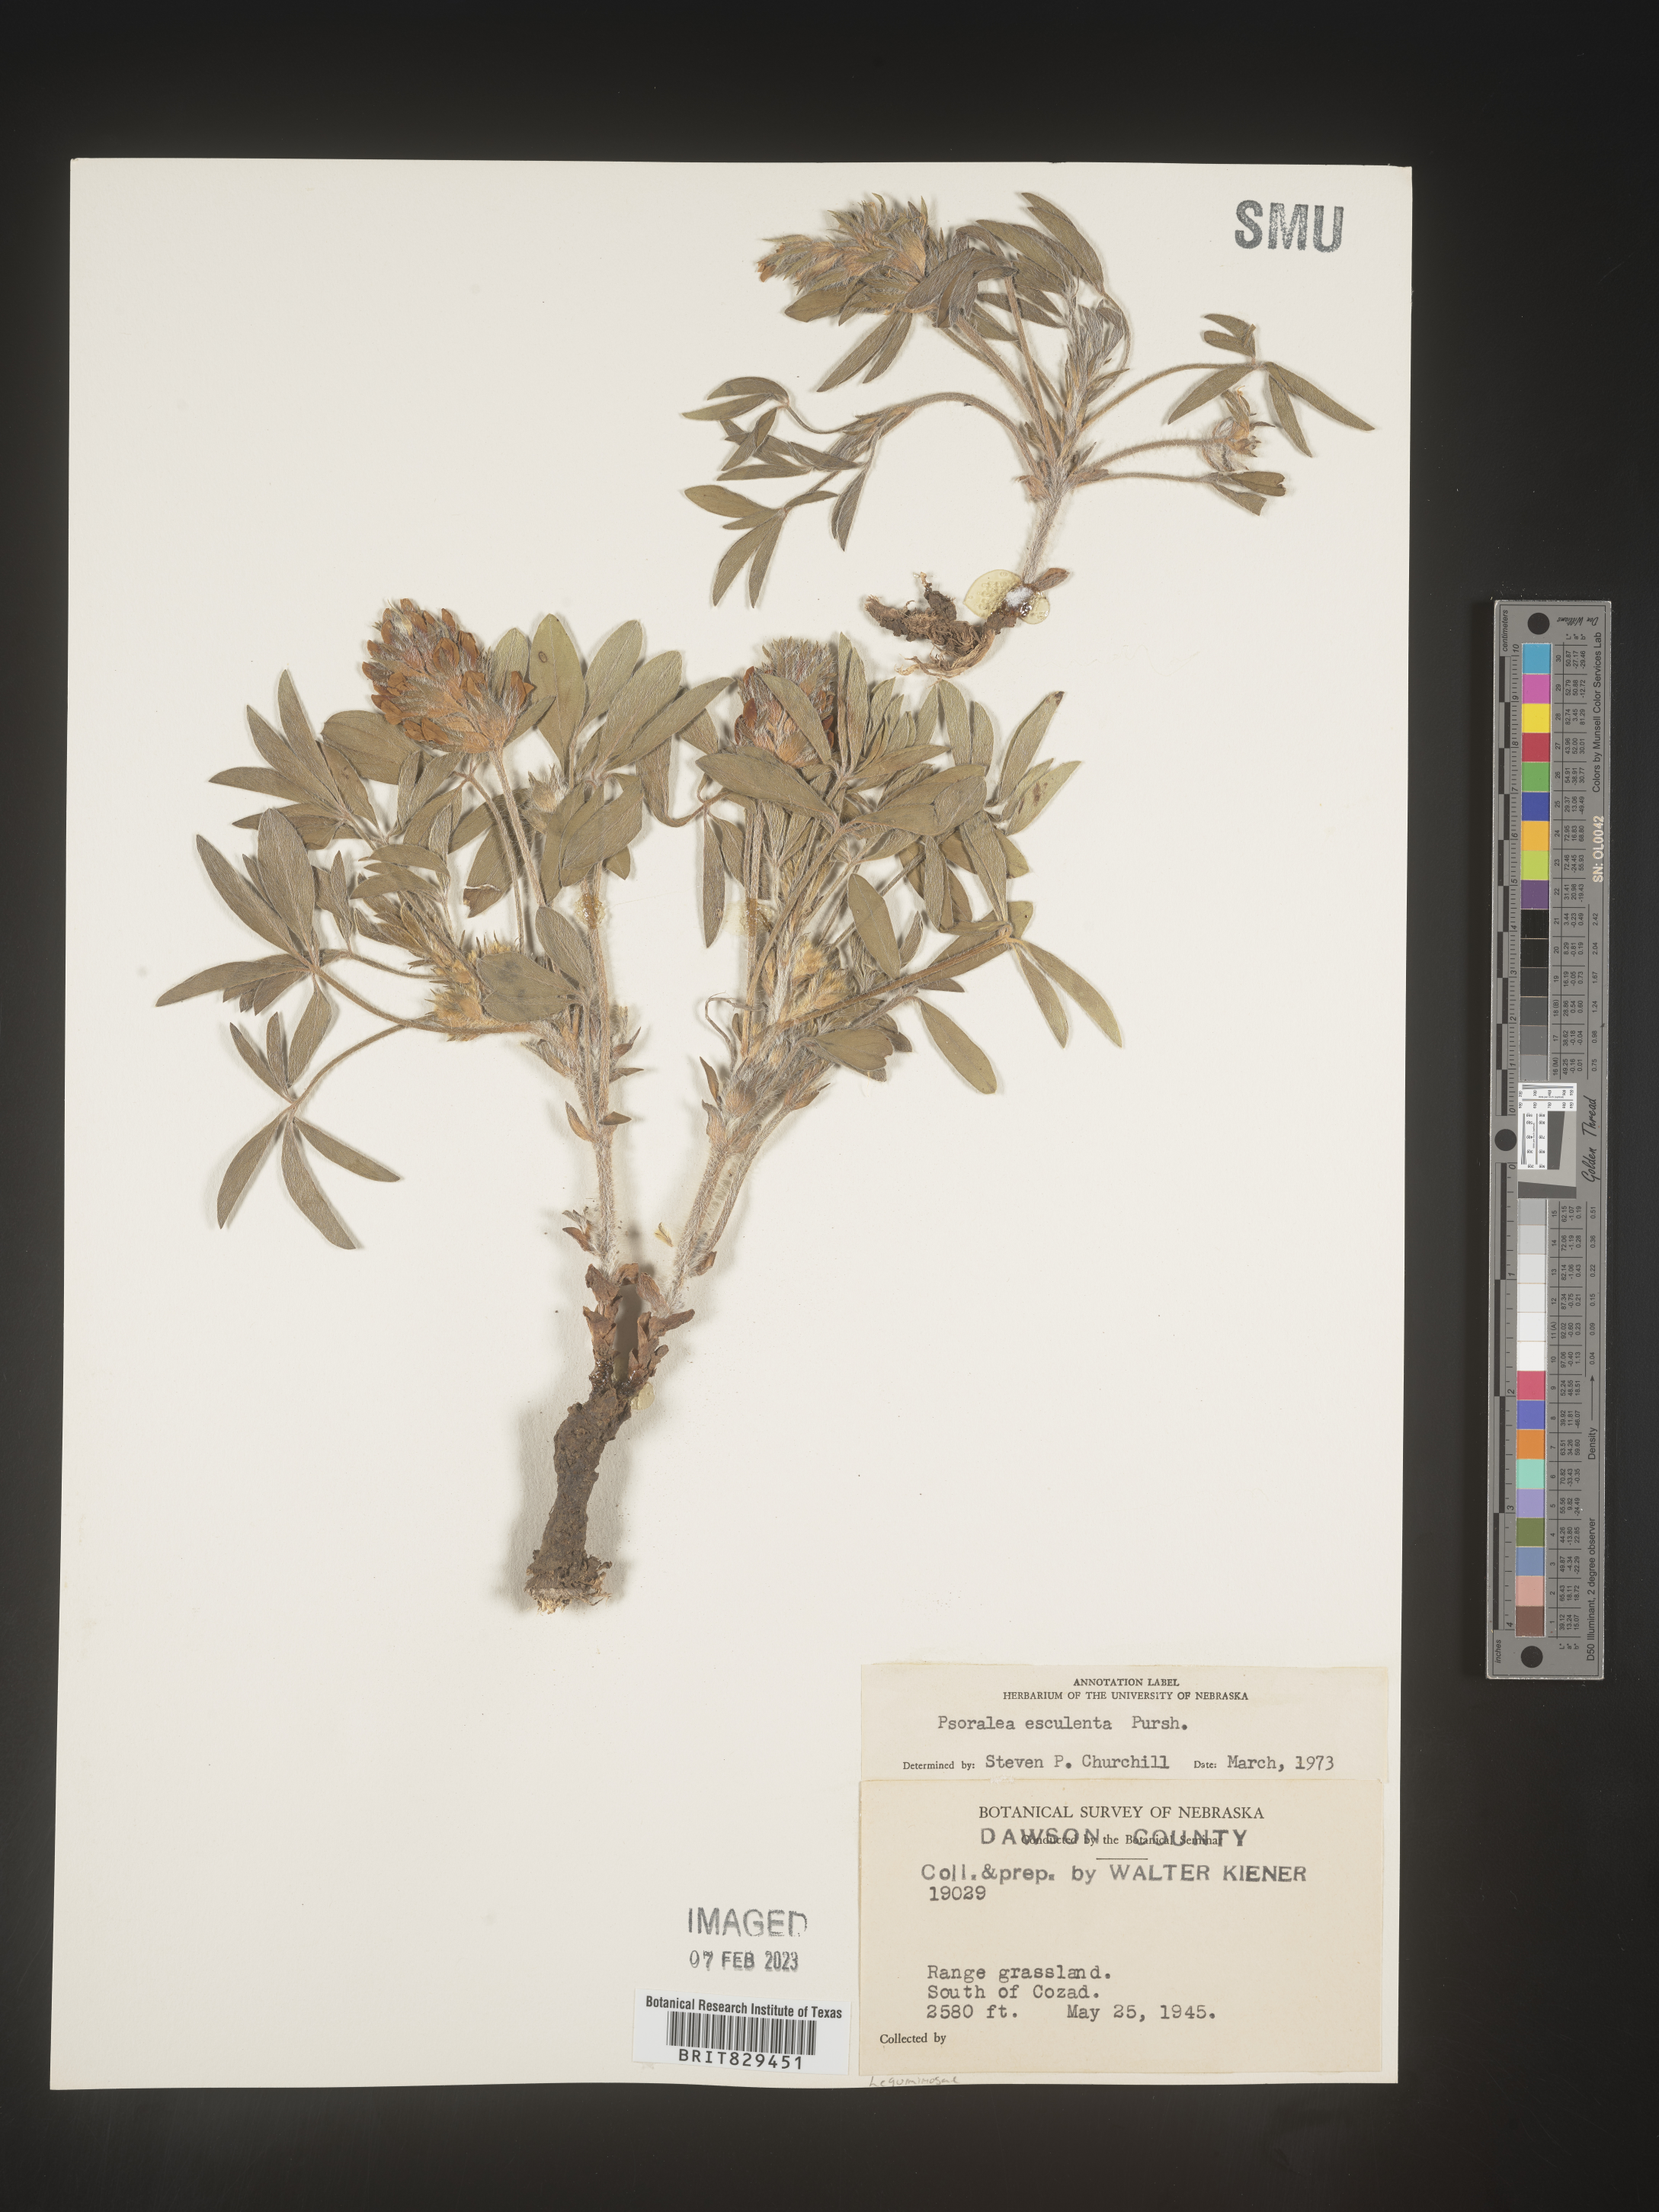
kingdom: Plantae
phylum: Tracheophyta
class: Magnoliopsida
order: Fabales
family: Fabaceae
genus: Psoralea
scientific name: Psoralea
